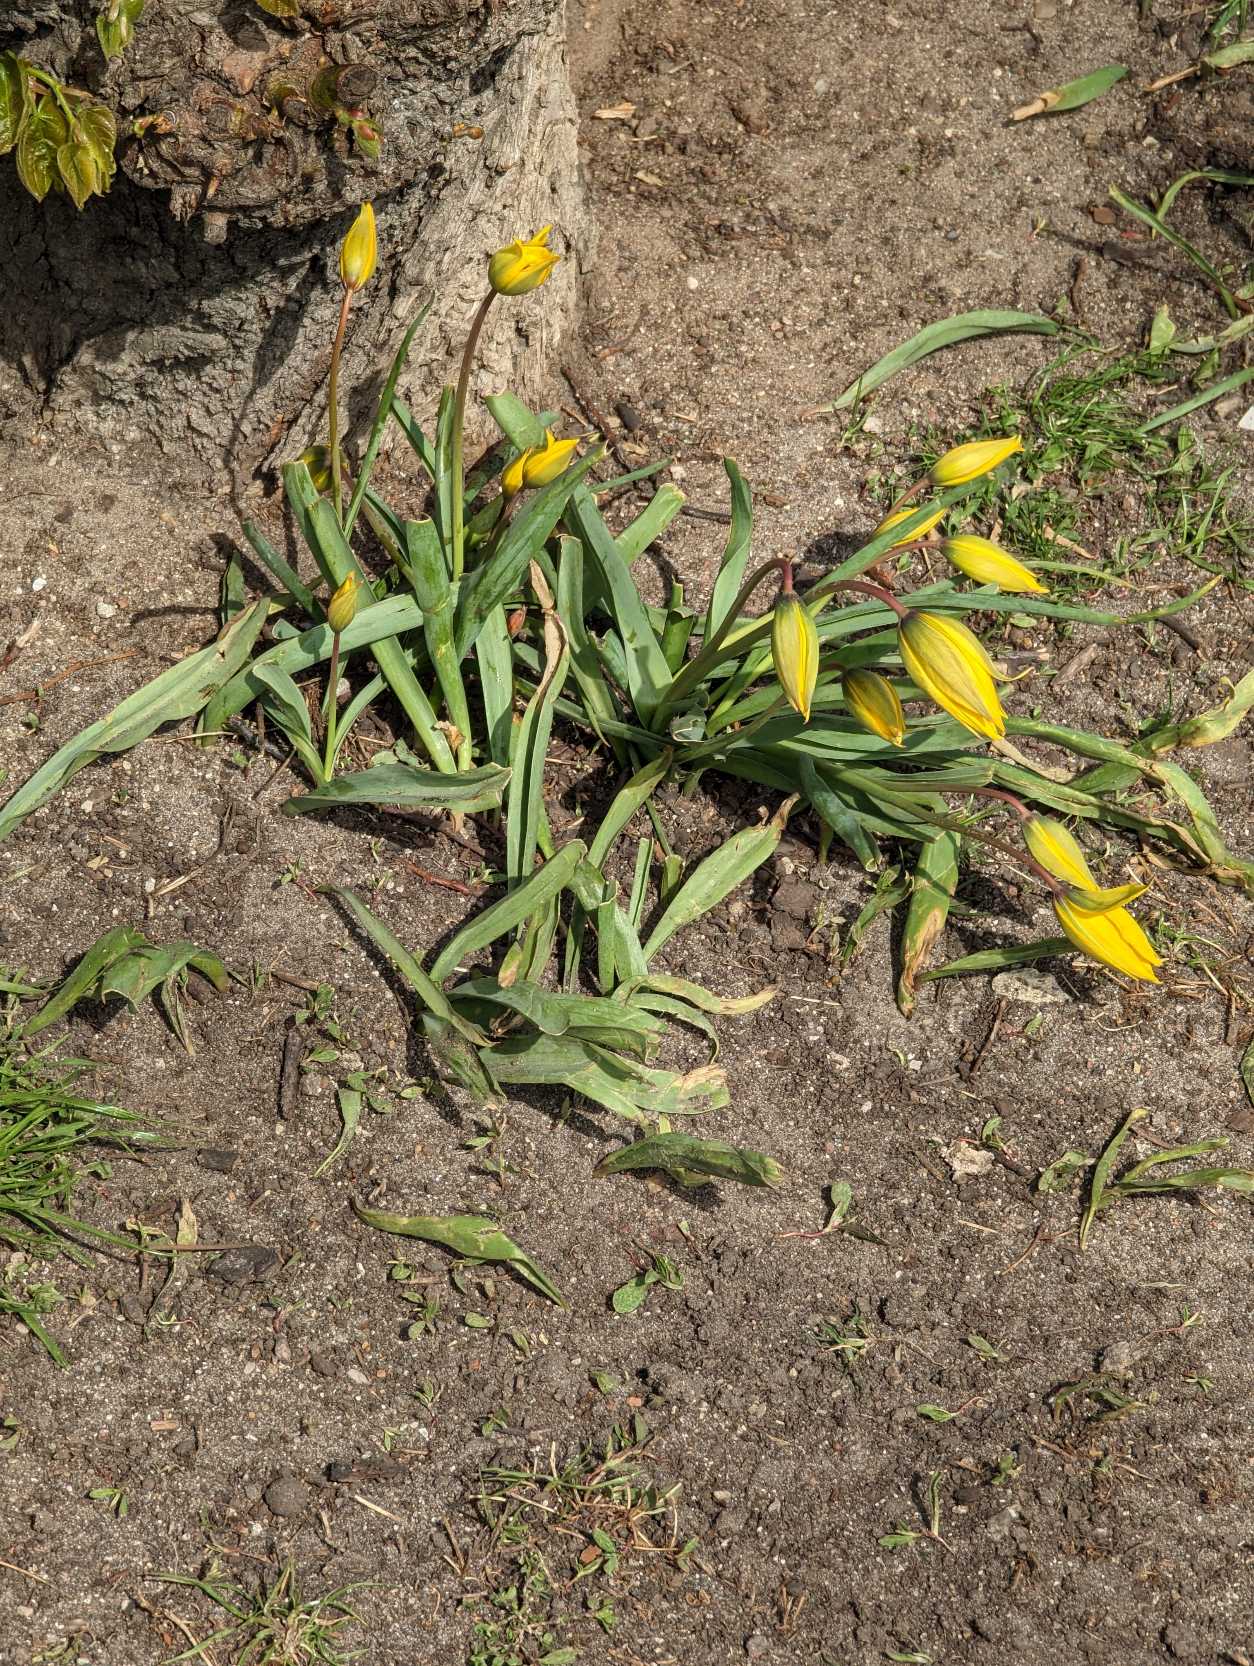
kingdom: Plantae
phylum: Tracheophyta
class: Liliopsida
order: Liliales
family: Liliaceae
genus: Tulipa
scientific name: Tulipa sylvestris
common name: Vild tulipan
